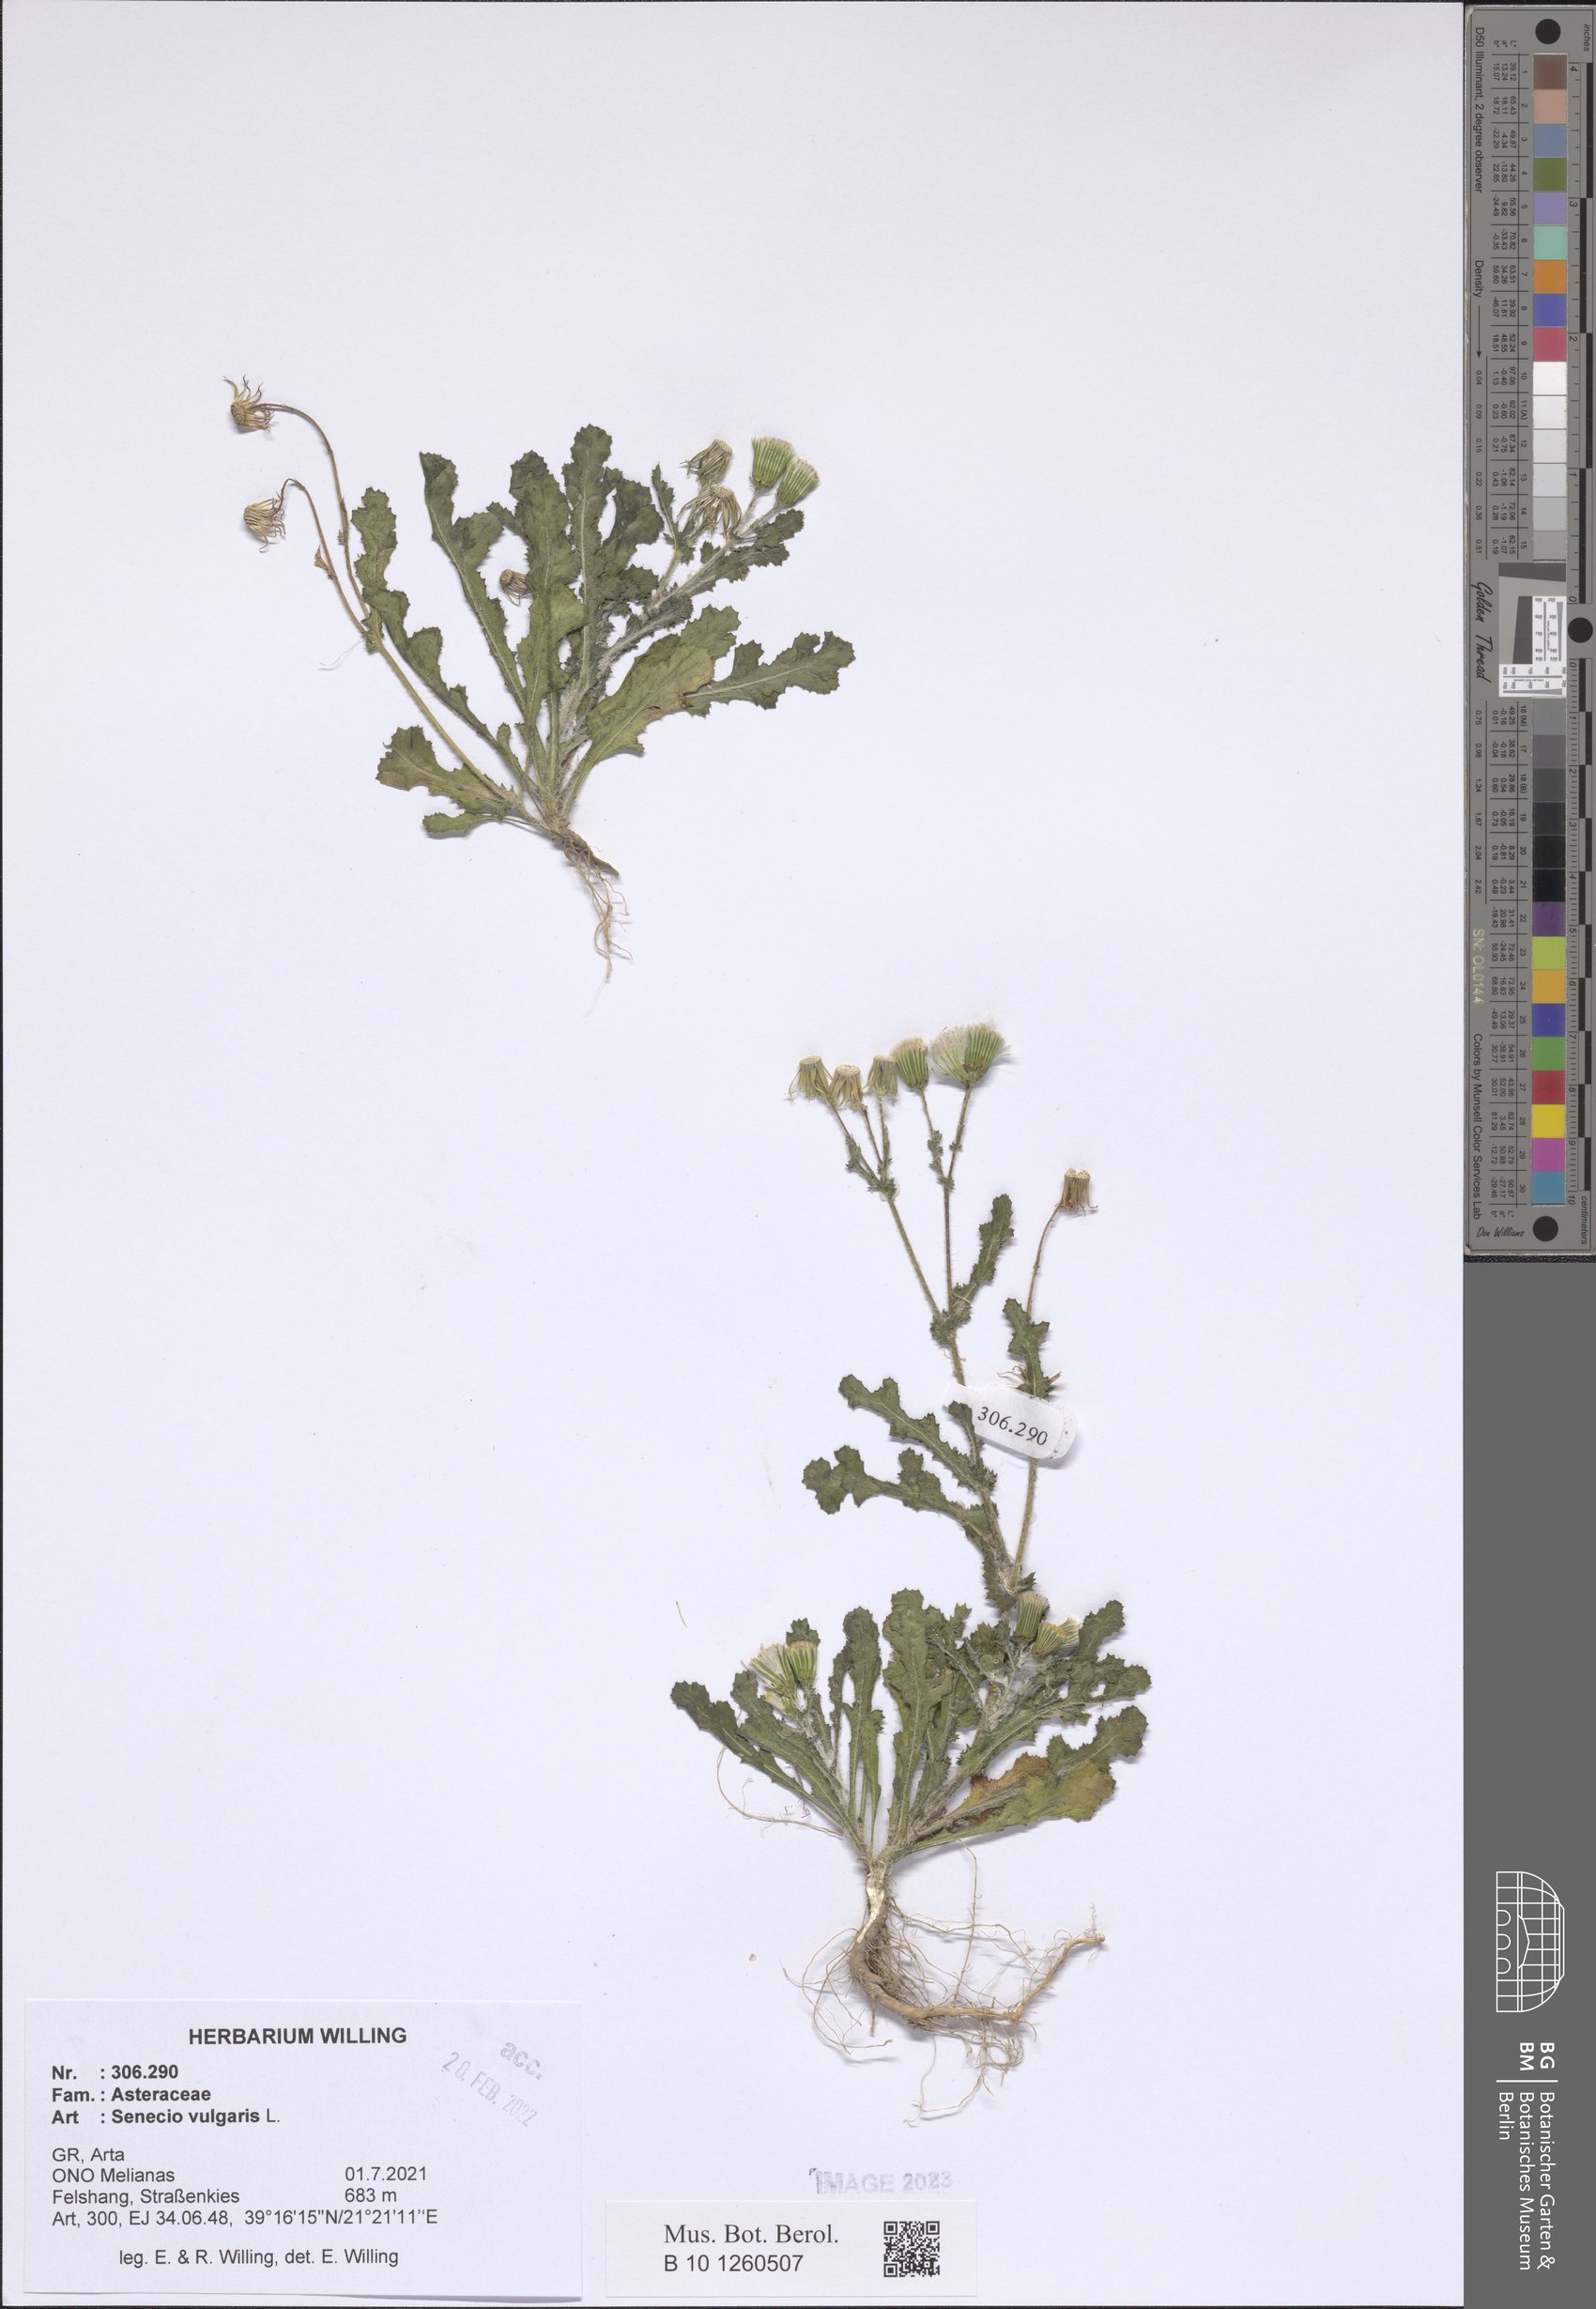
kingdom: Plantae
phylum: Tracheophyta
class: Magnoliopsida
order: Asterales
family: Asteraceae
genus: Senecio
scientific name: Senecio vulgaris
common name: Old-man-in-the-spring
